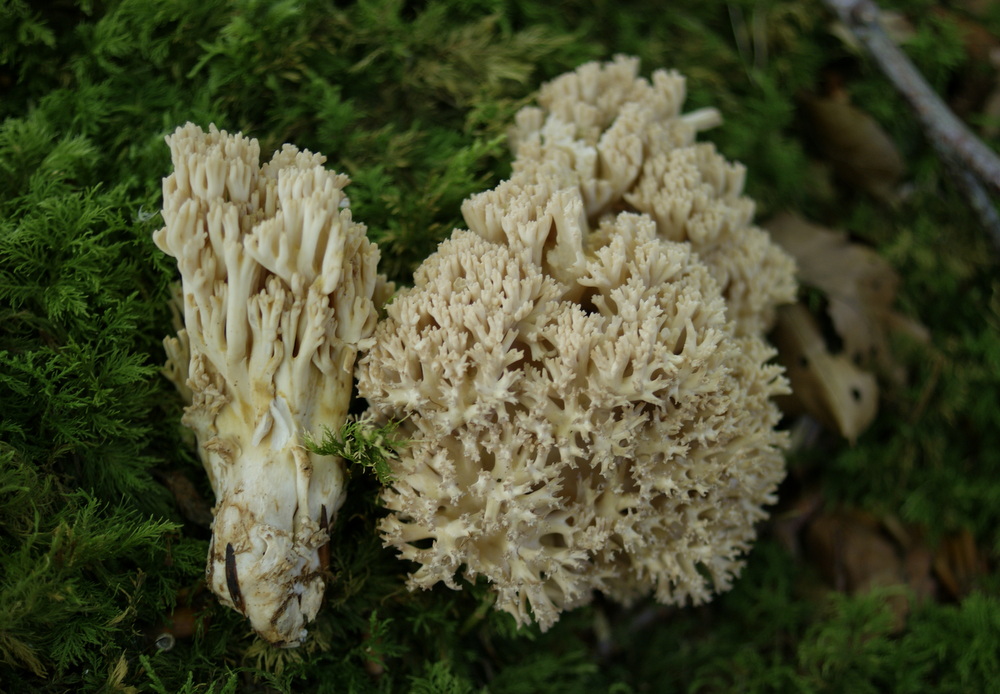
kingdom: Fungi
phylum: Basidiomycota
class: Agaricomycetes
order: Gomphales
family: Gomphaceae
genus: Ramaria
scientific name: Ramaria
